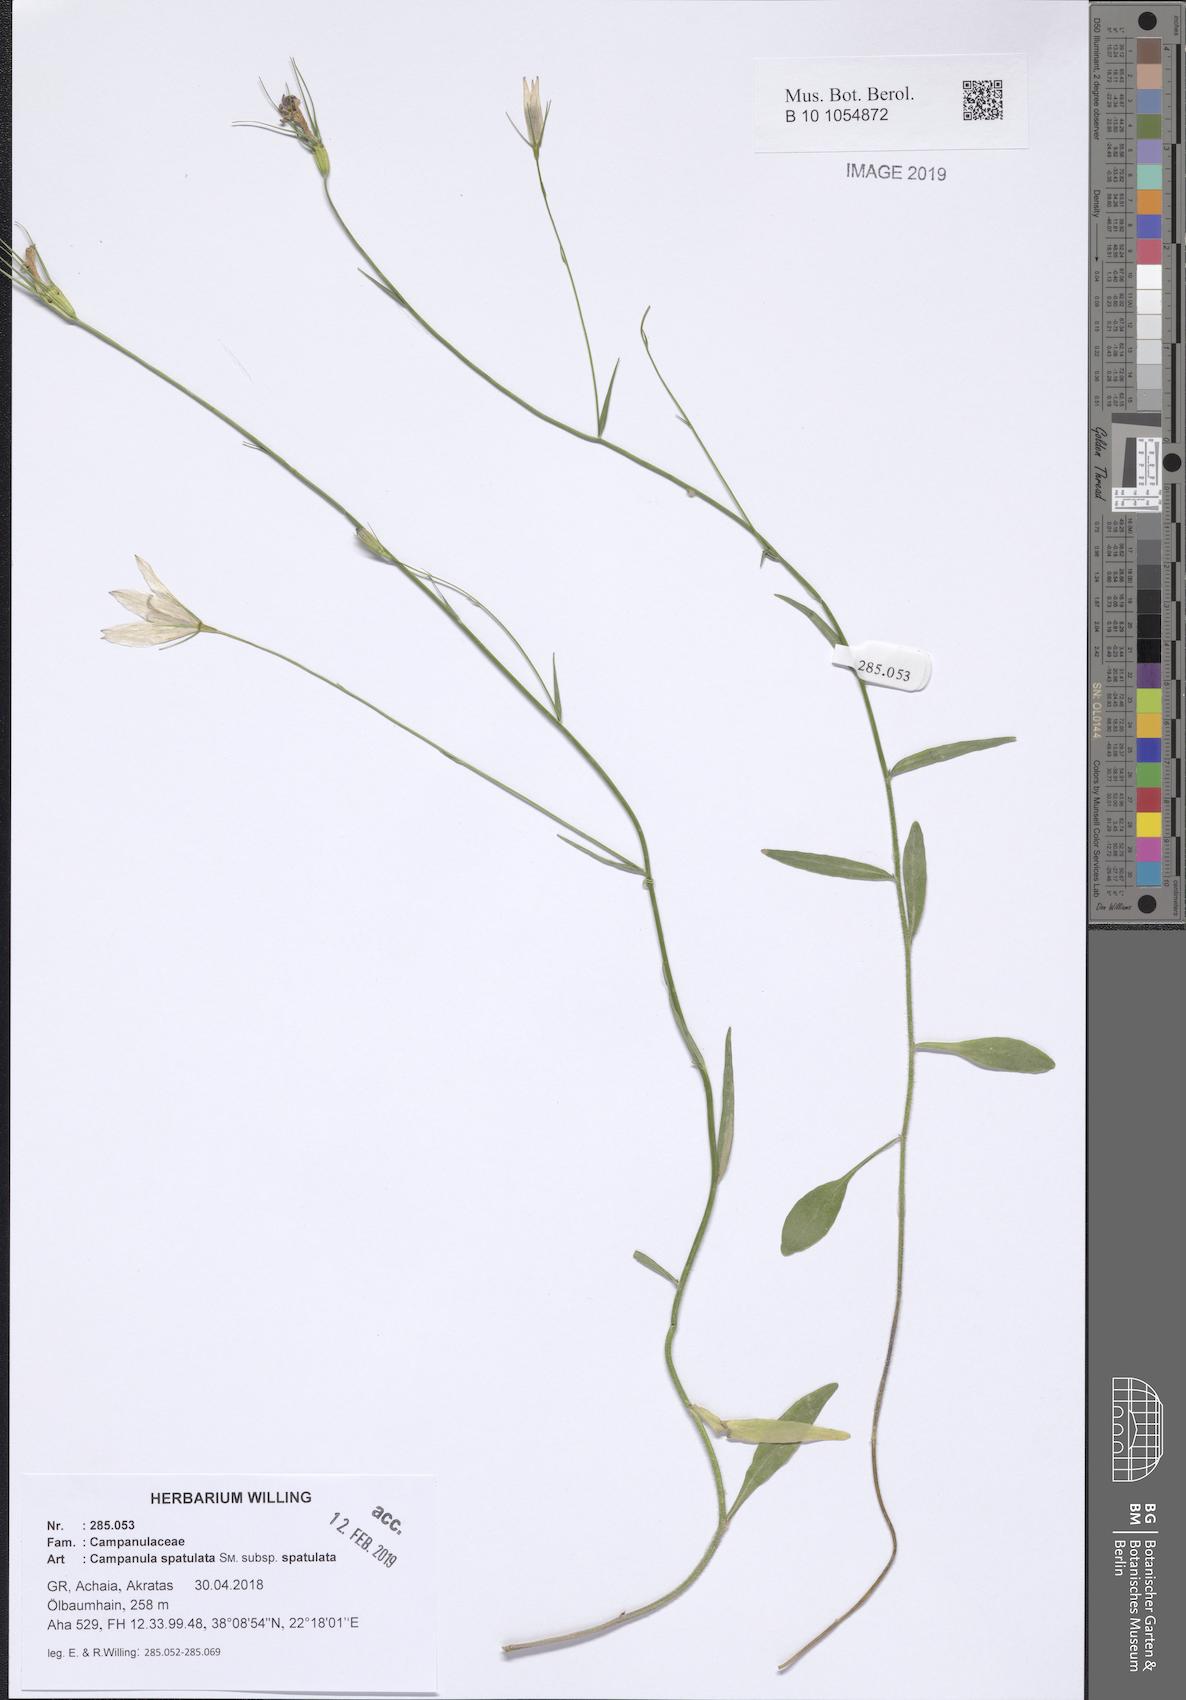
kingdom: Plantae
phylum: Tracheophyta
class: Magnoliopsida
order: Asterales
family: Campanulaceae
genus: Campanula
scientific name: Campanula spatulata
